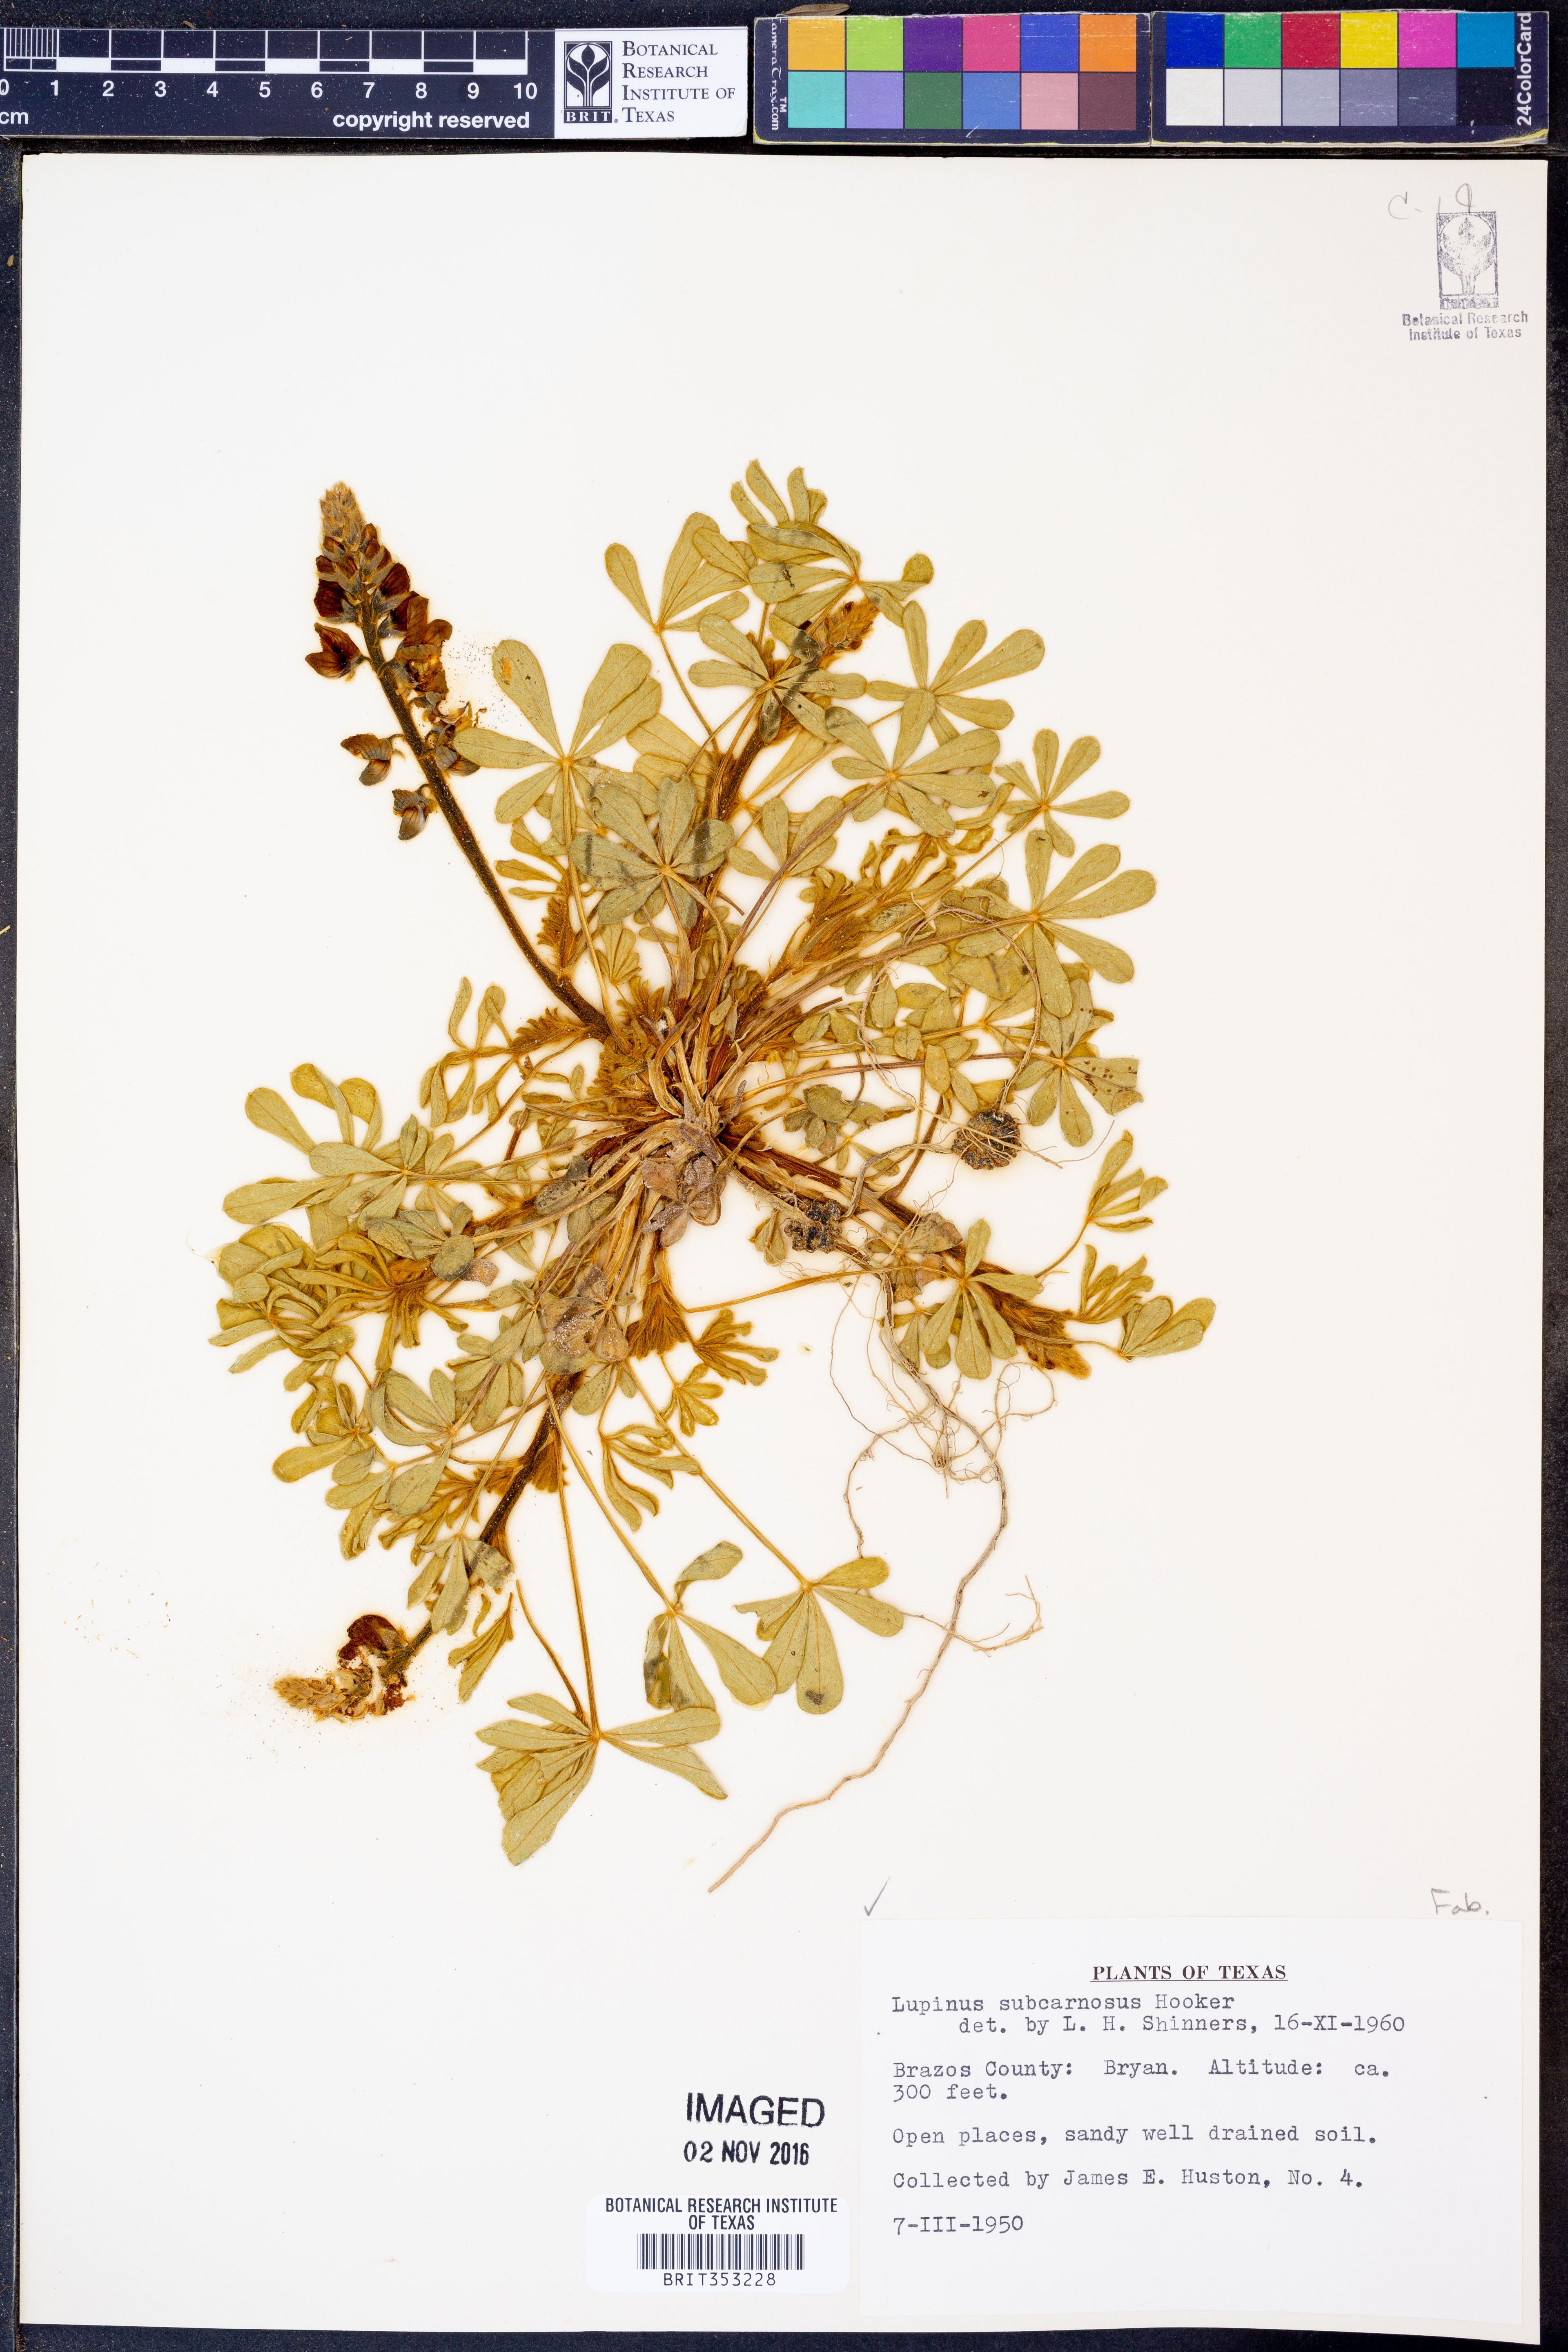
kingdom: Plantae
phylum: Tracheophyta
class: Magnoliopsida
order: Fabales
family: Fabaceae
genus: Lupinus
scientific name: Lupinus subcarnosus
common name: Texas bluebonnet
